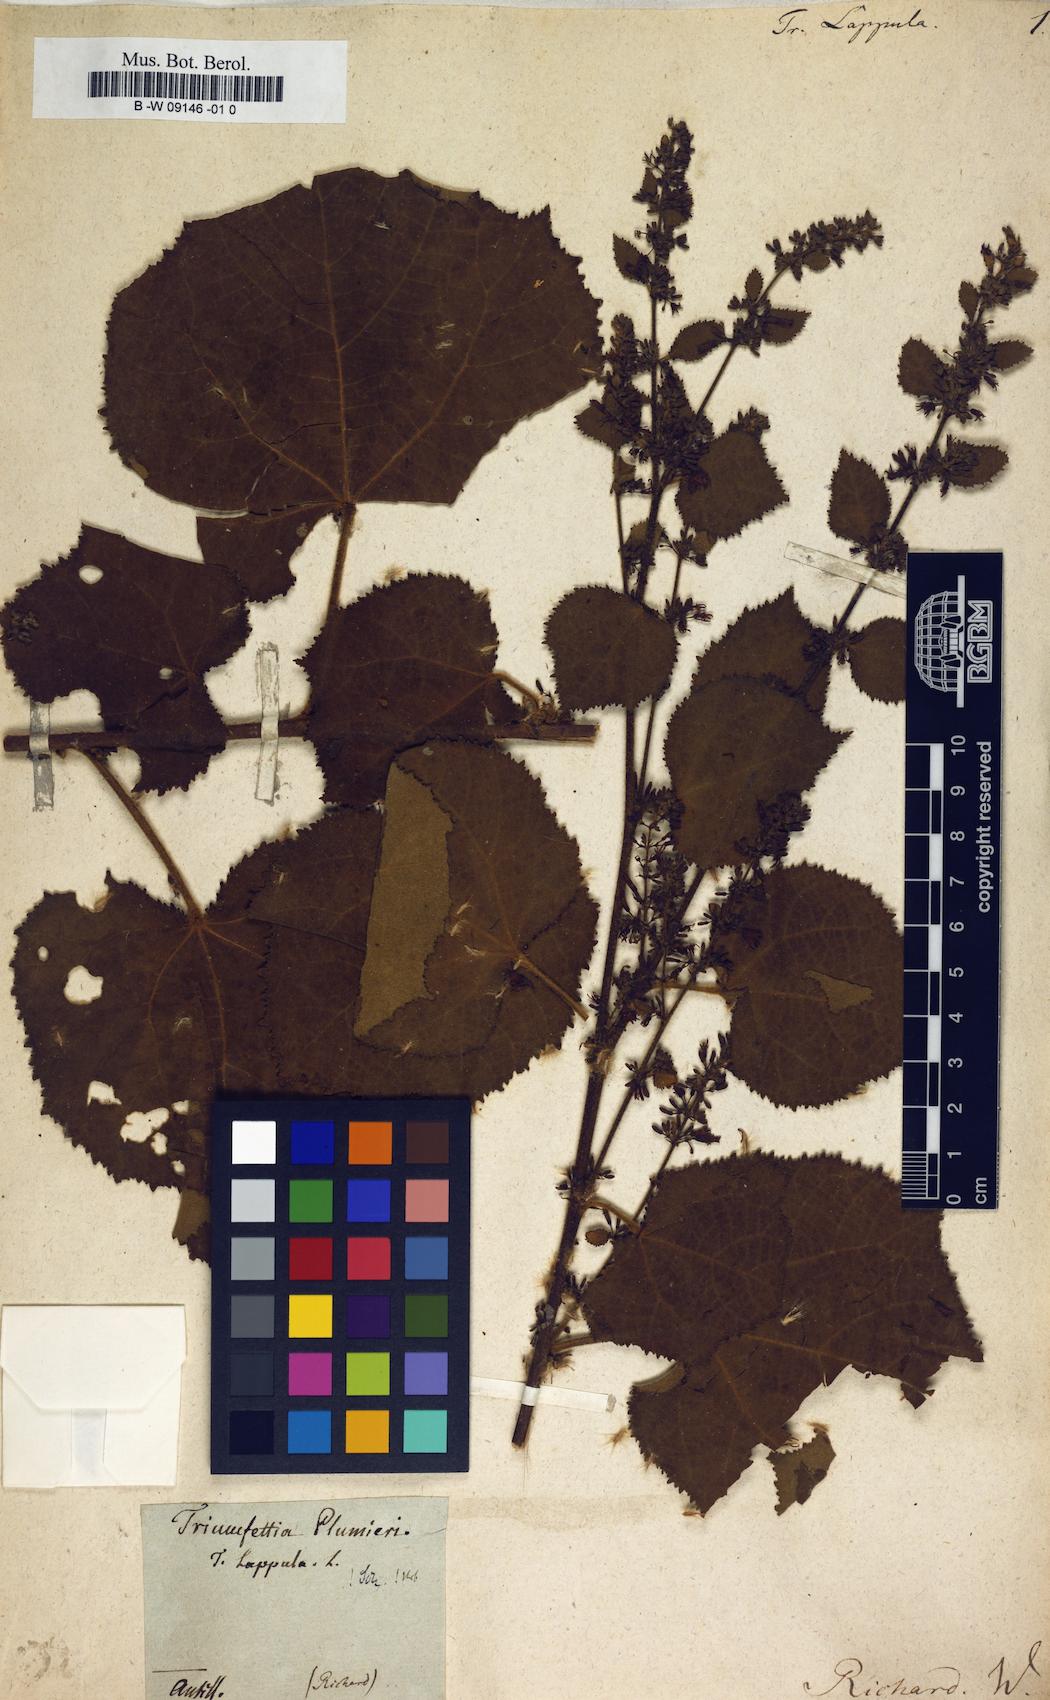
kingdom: Plantae
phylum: Tracheophyta
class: Magnoliopsida
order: Malvales
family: Malvaceae
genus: Triumfetta
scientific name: Triumfetta lappula
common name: Burbark
